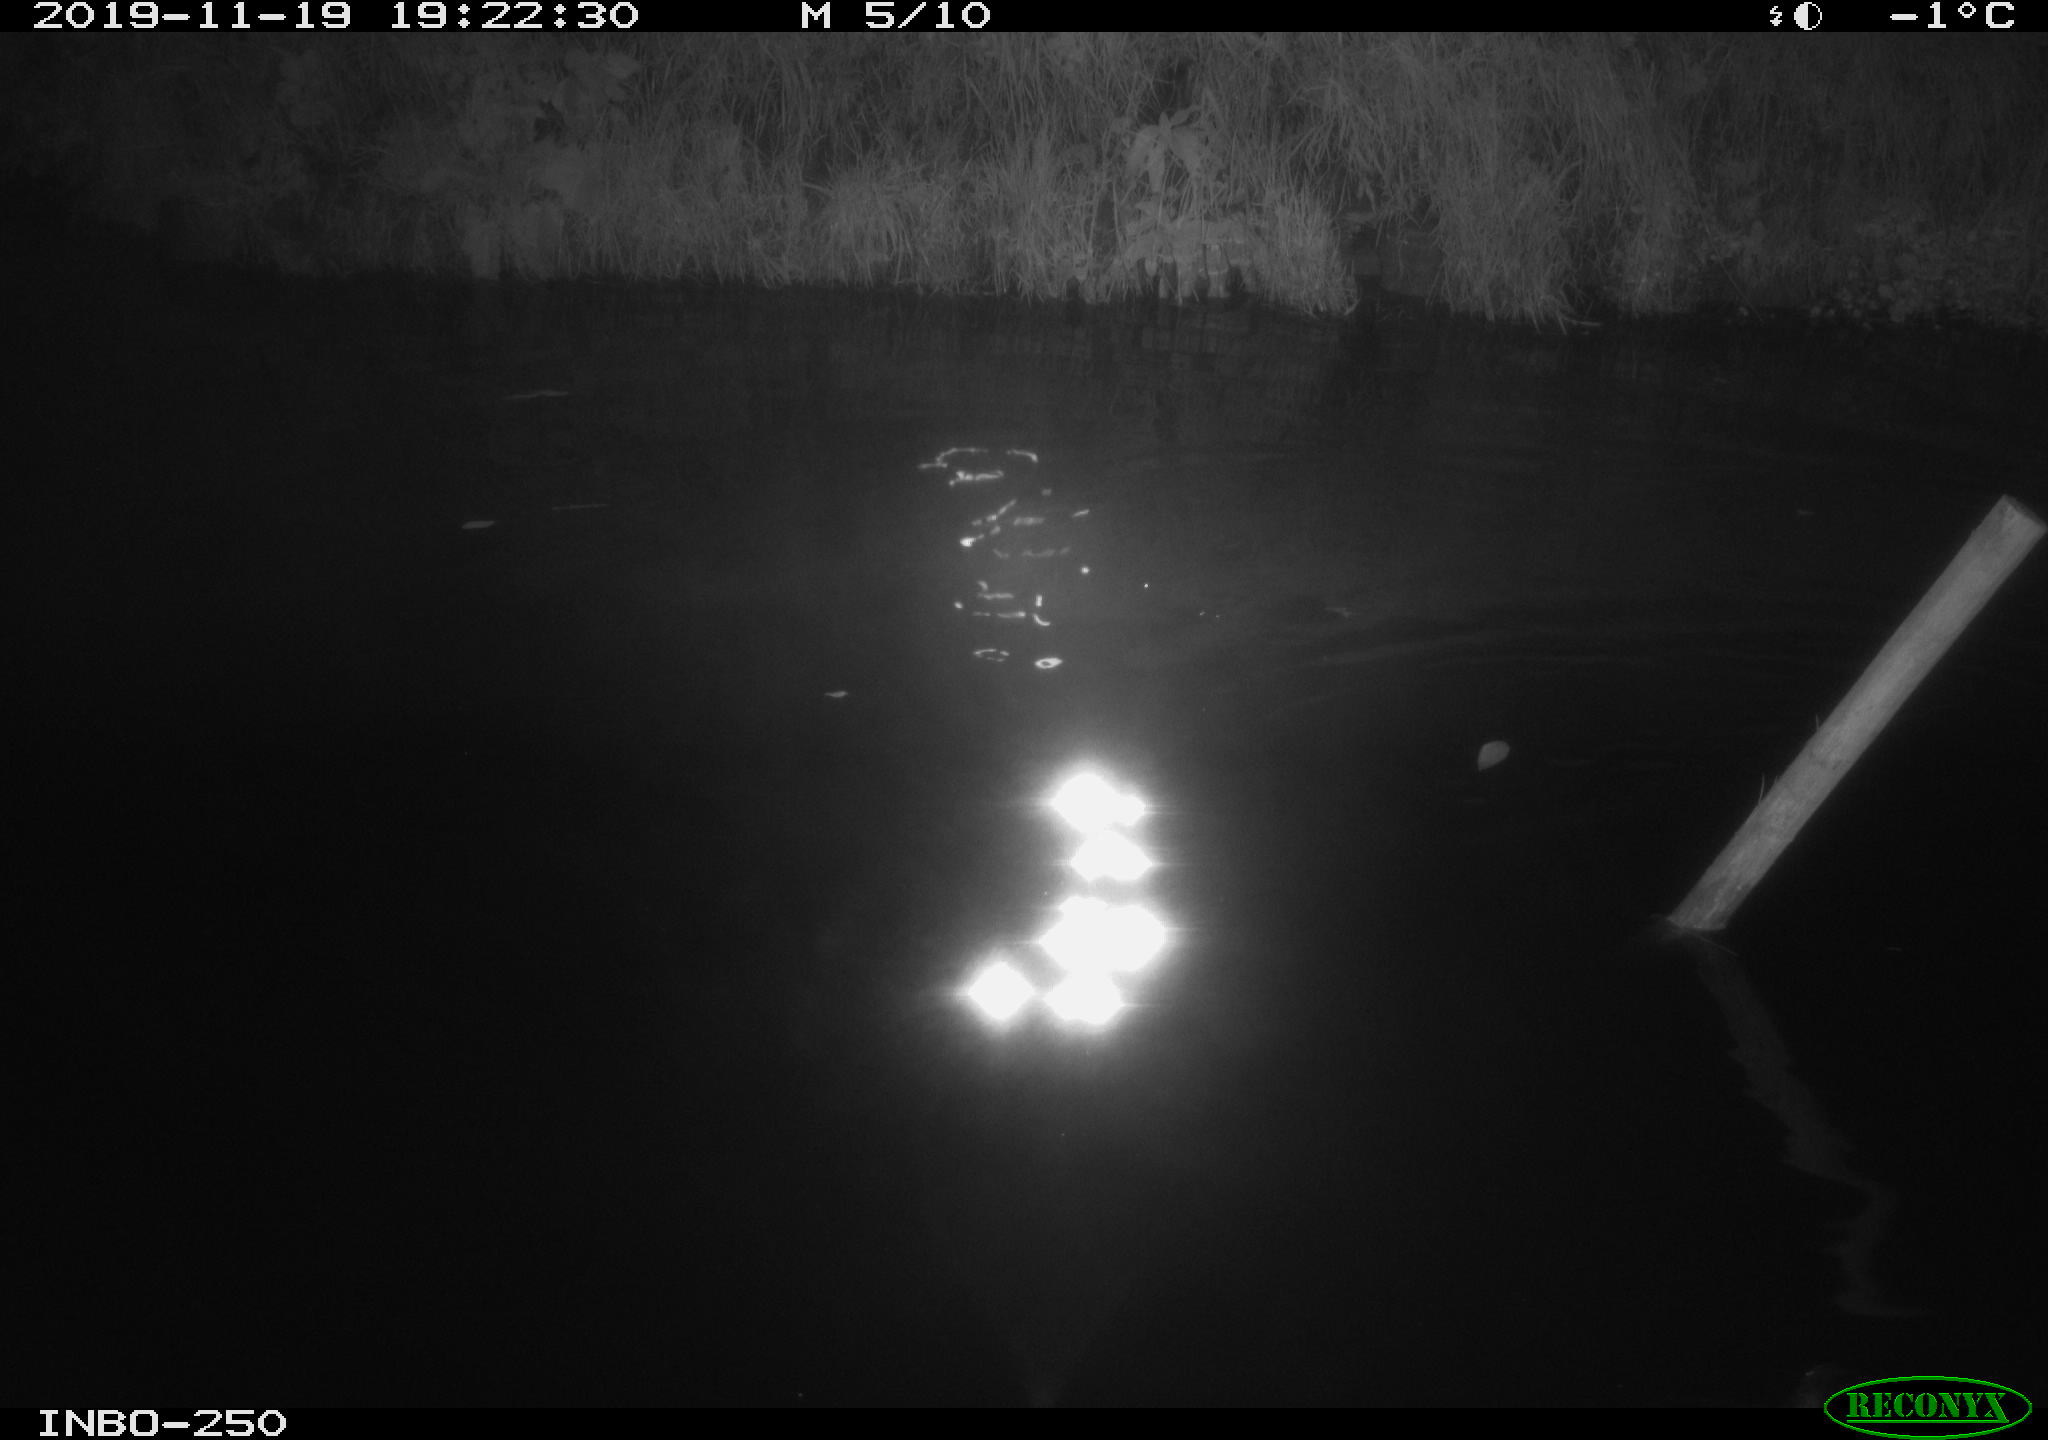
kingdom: Animalia
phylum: Chordata
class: Aves
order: Anseriformes
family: Anatidae
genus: Anas
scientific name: Anas platyrhynchos
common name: Mallard
